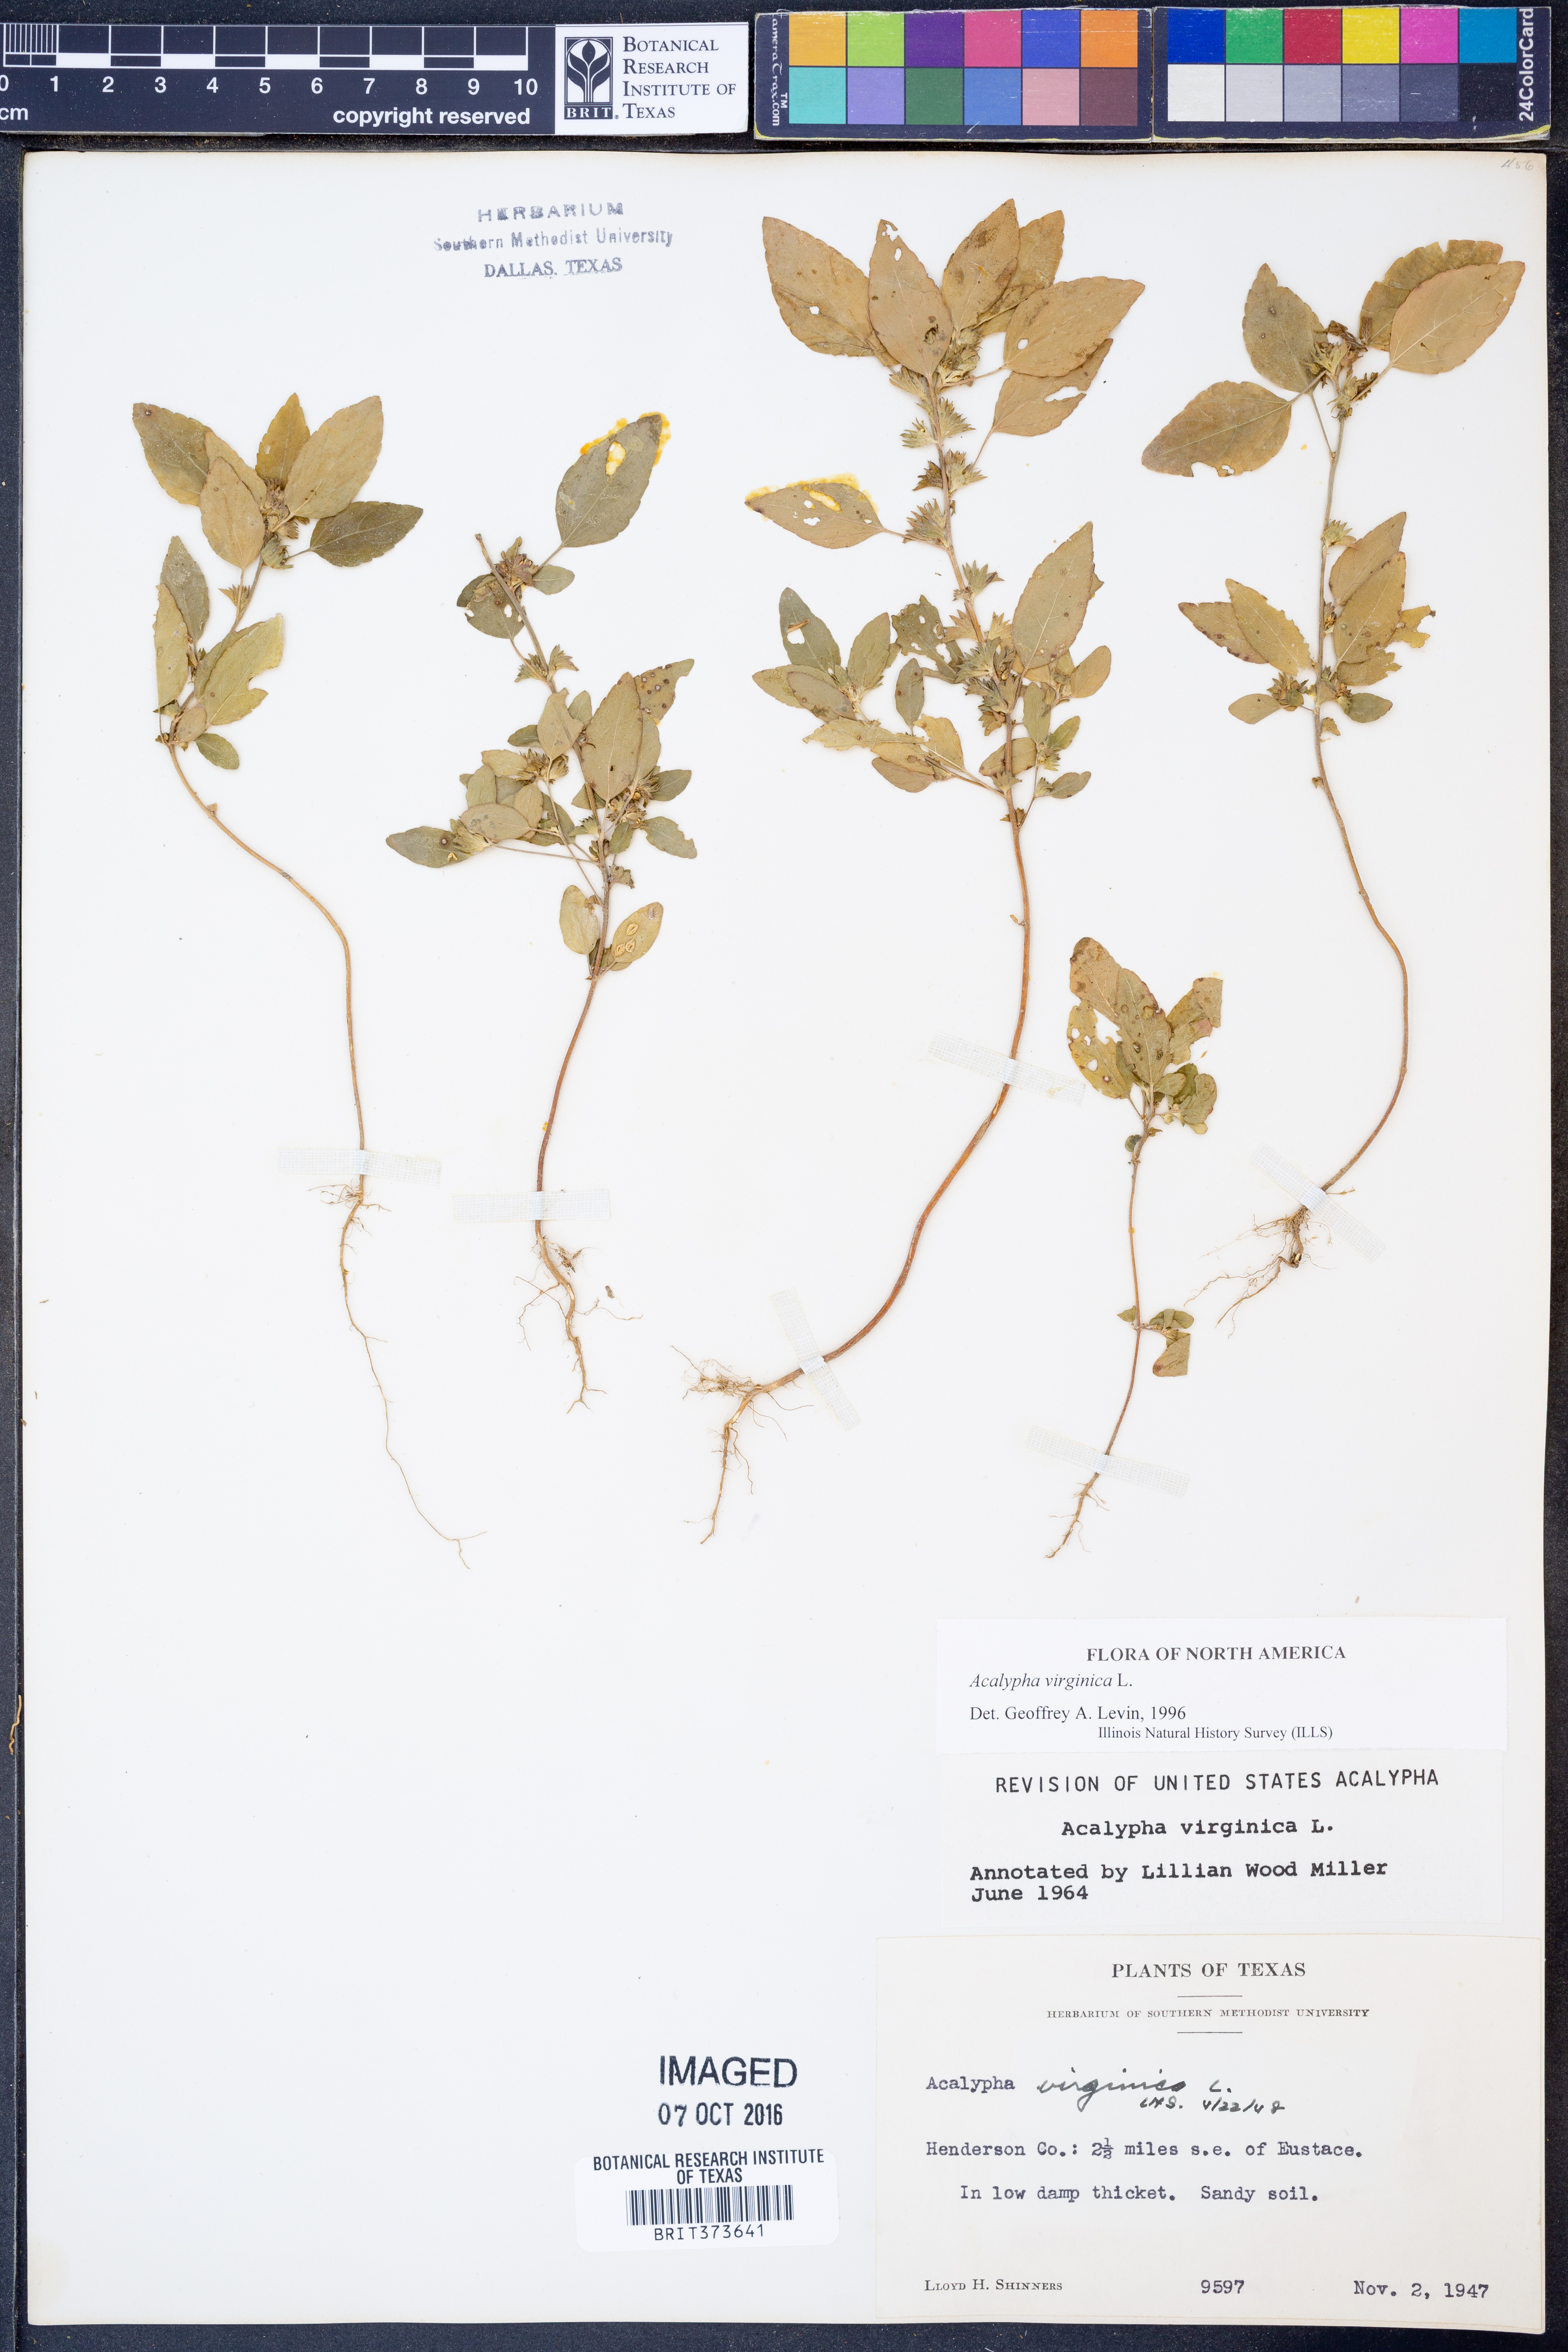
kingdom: Plantae
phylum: Tracheophyta
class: Magnoliopsida
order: Malpighiales
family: Euphorbiaceae
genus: Acalypha
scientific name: Acalypha virginica
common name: Virginia copperleaf
